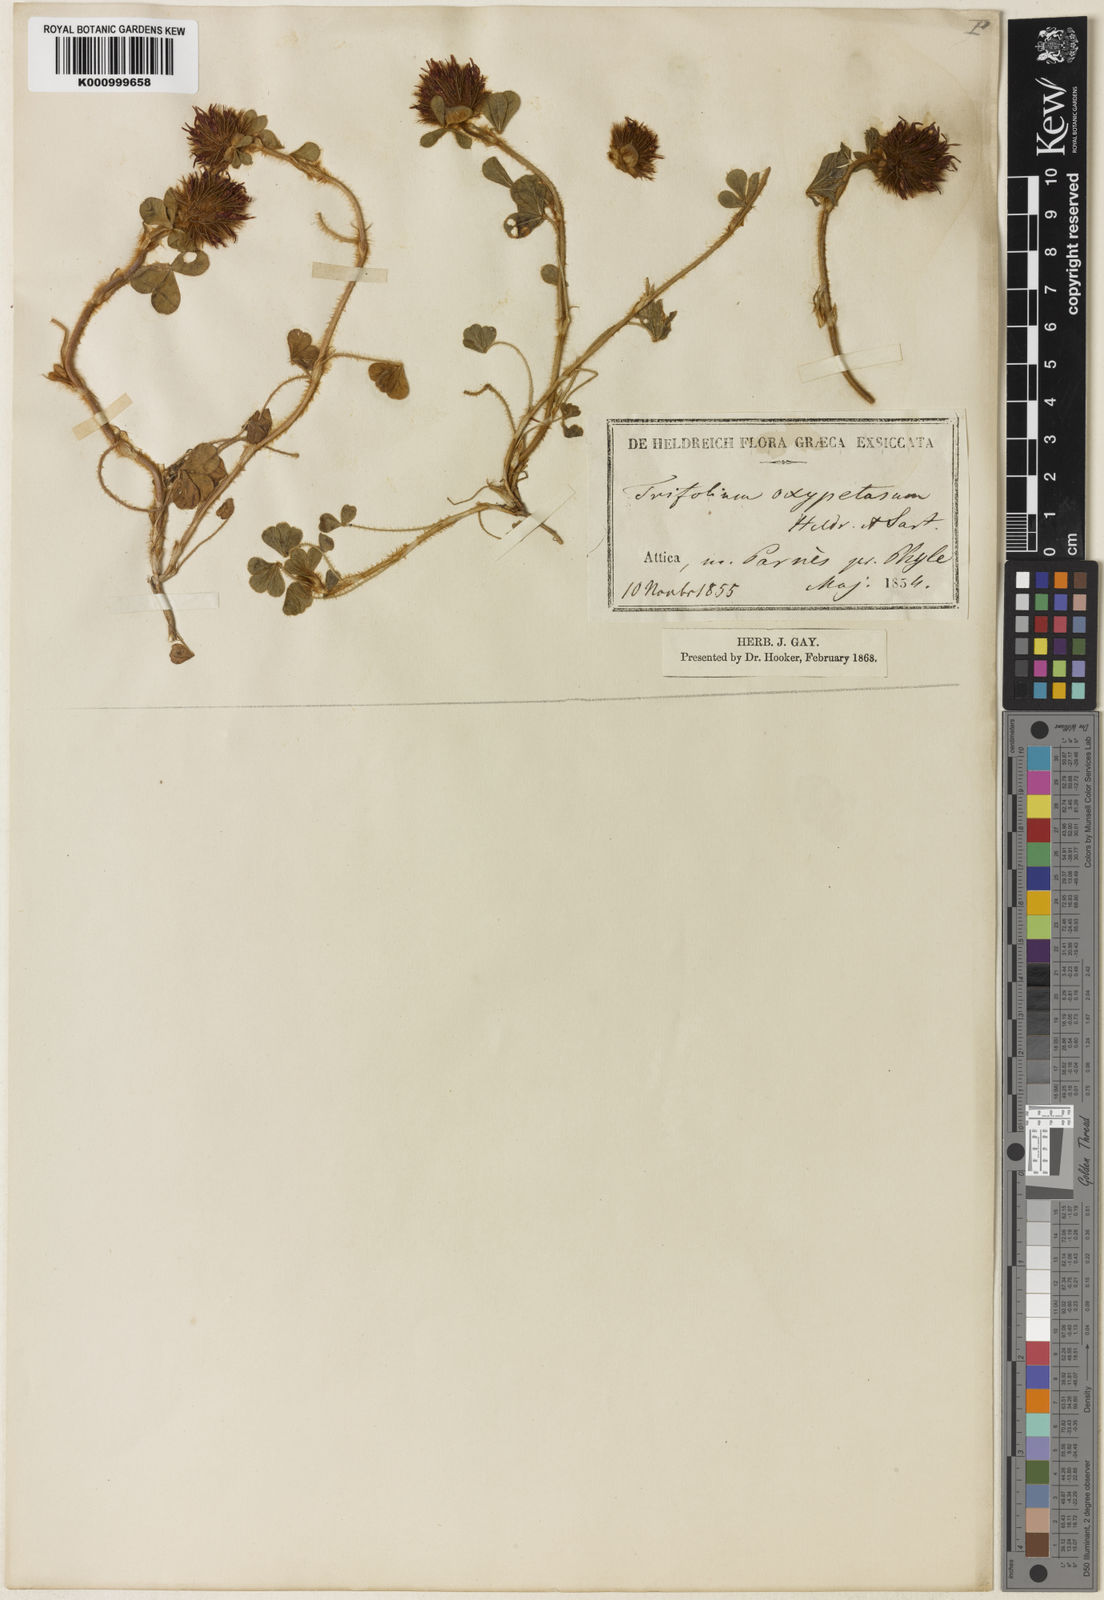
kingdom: Plantae
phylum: Tracheophyta
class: Magnoliopsida
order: Fabales
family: Fabaceae
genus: Trifolium
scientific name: Trifolium hirtum
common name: Rose clover
